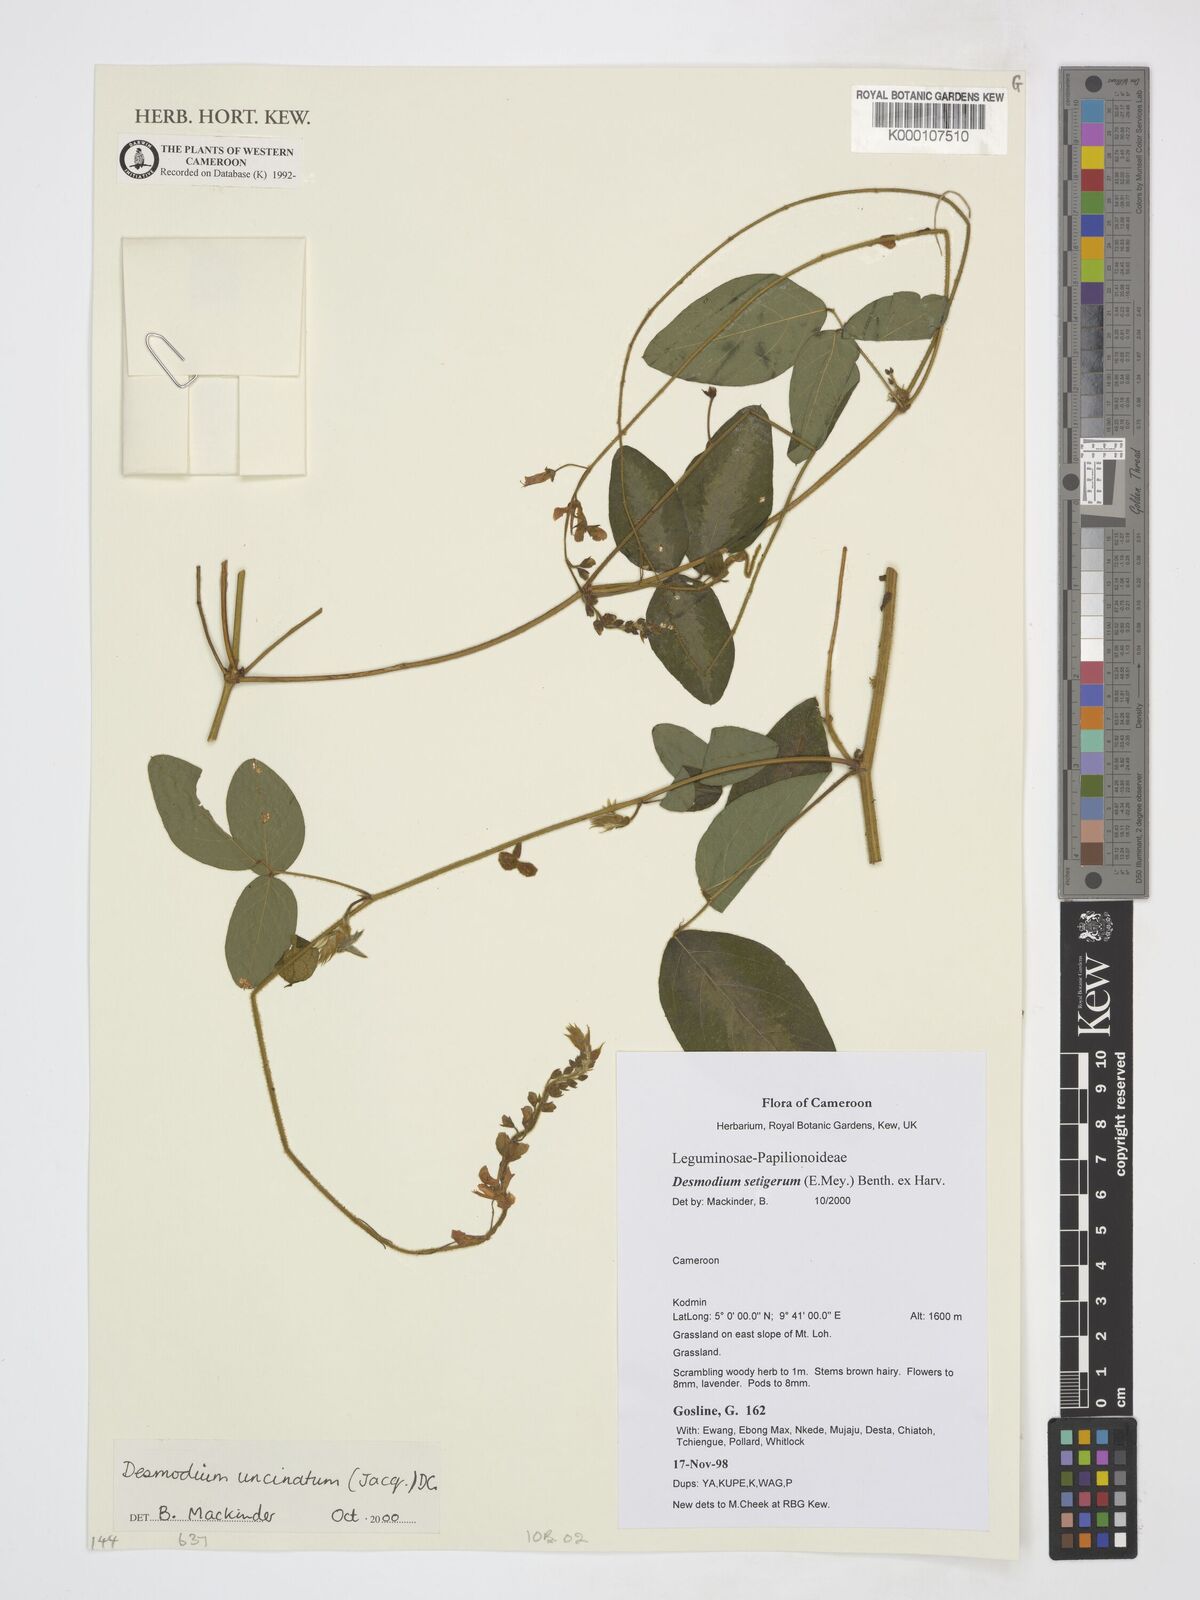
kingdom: Plantae
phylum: Tracheophyta
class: Magnoliopsida
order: Fabales
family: Fabaceae
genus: Desmodium
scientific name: Desmodium uncinatum
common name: Silverleaf desmodium
